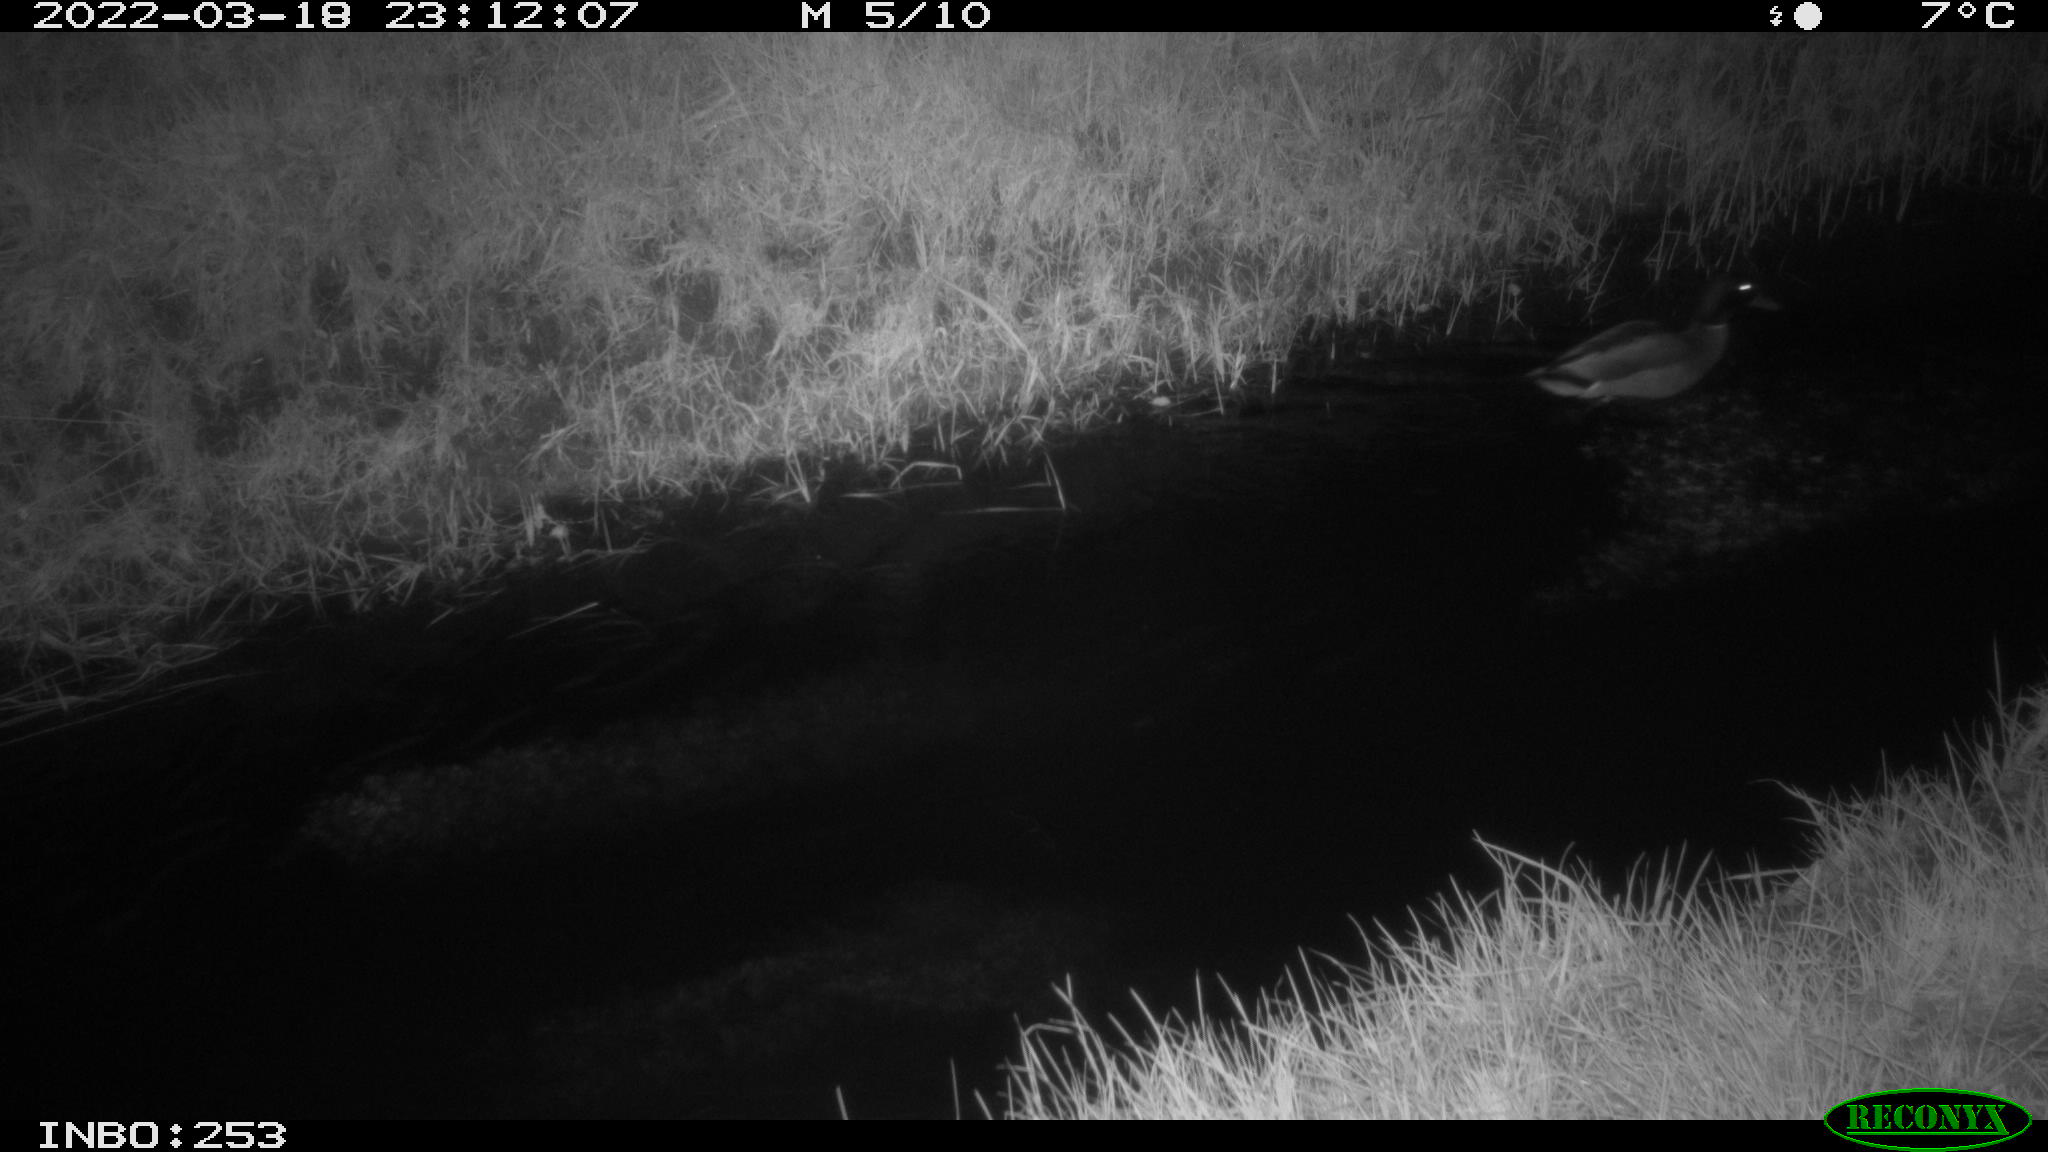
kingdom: Animalia
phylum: Chordata
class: Aves
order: Anseriformes
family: Anatidae
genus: Anas
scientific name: Anas platyrhynchos
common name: Mallard
